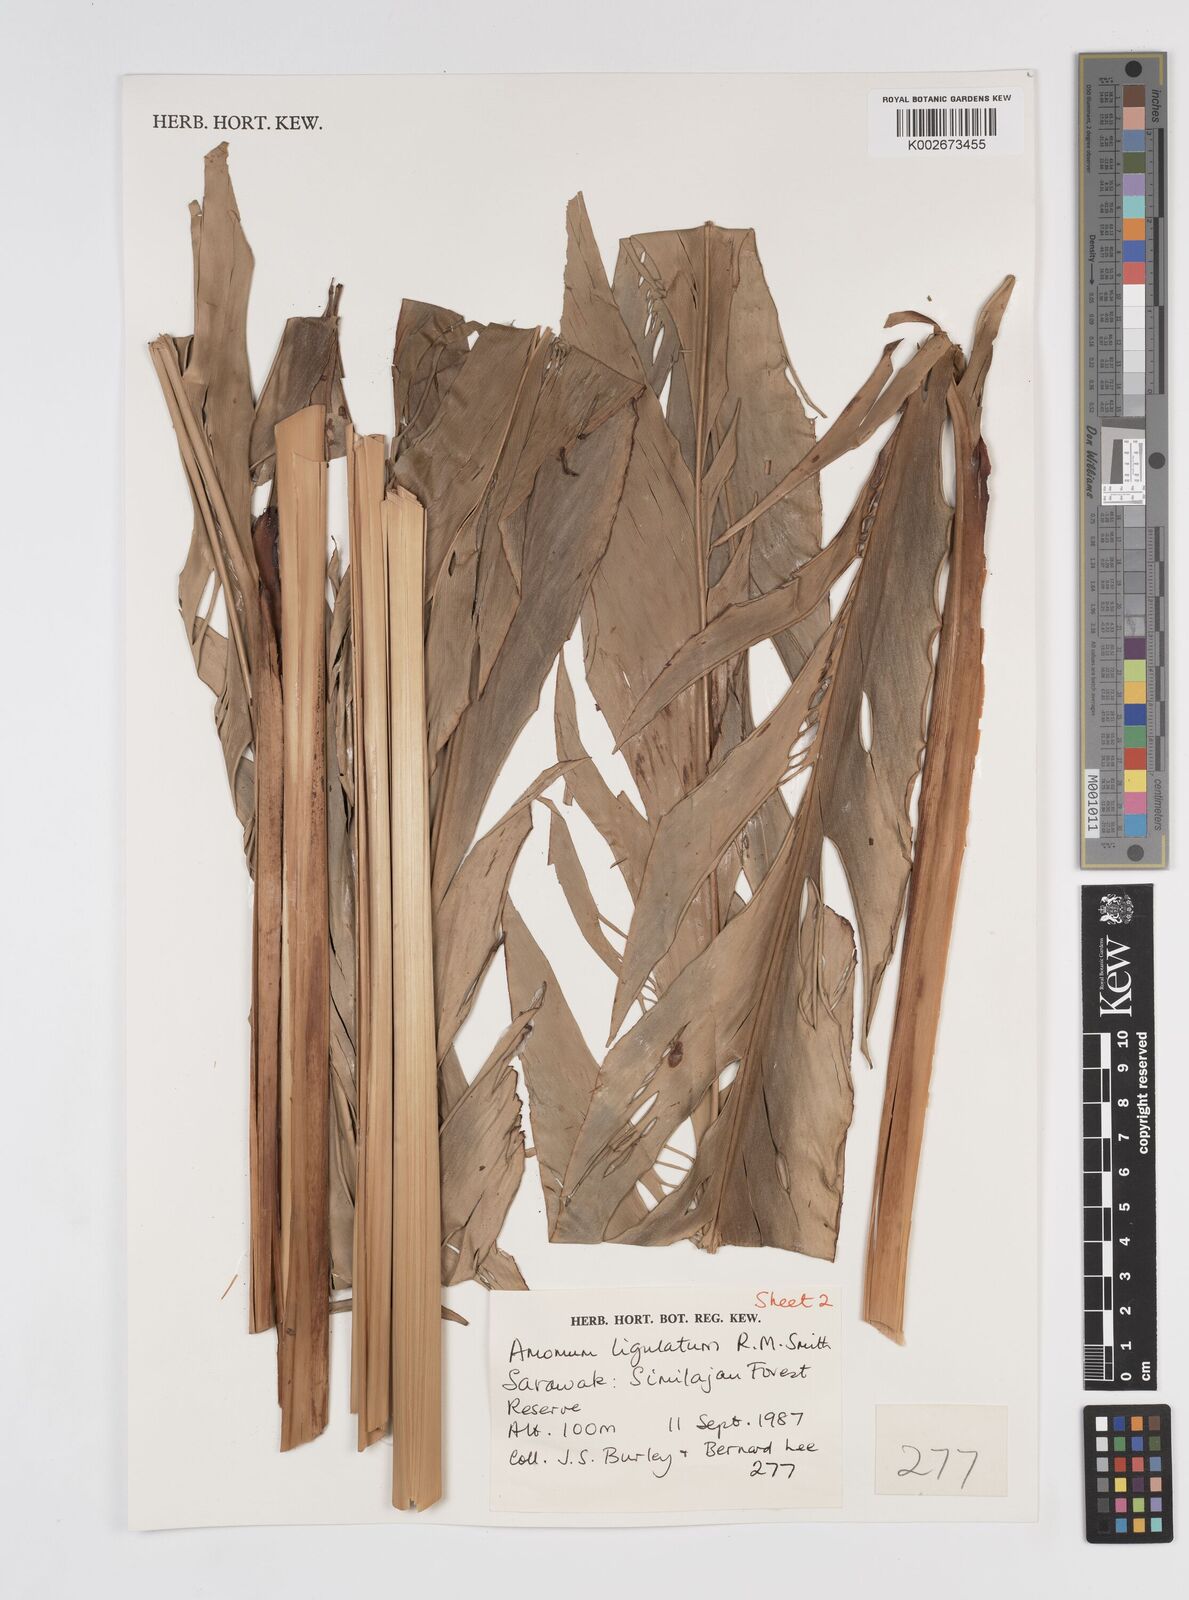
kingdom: Plantae
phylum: Tracheophyta
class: Liliopsida
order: Zingiberales
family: Zingiberaceae
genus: Sulettaria
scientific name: Sulettaria ligulata
